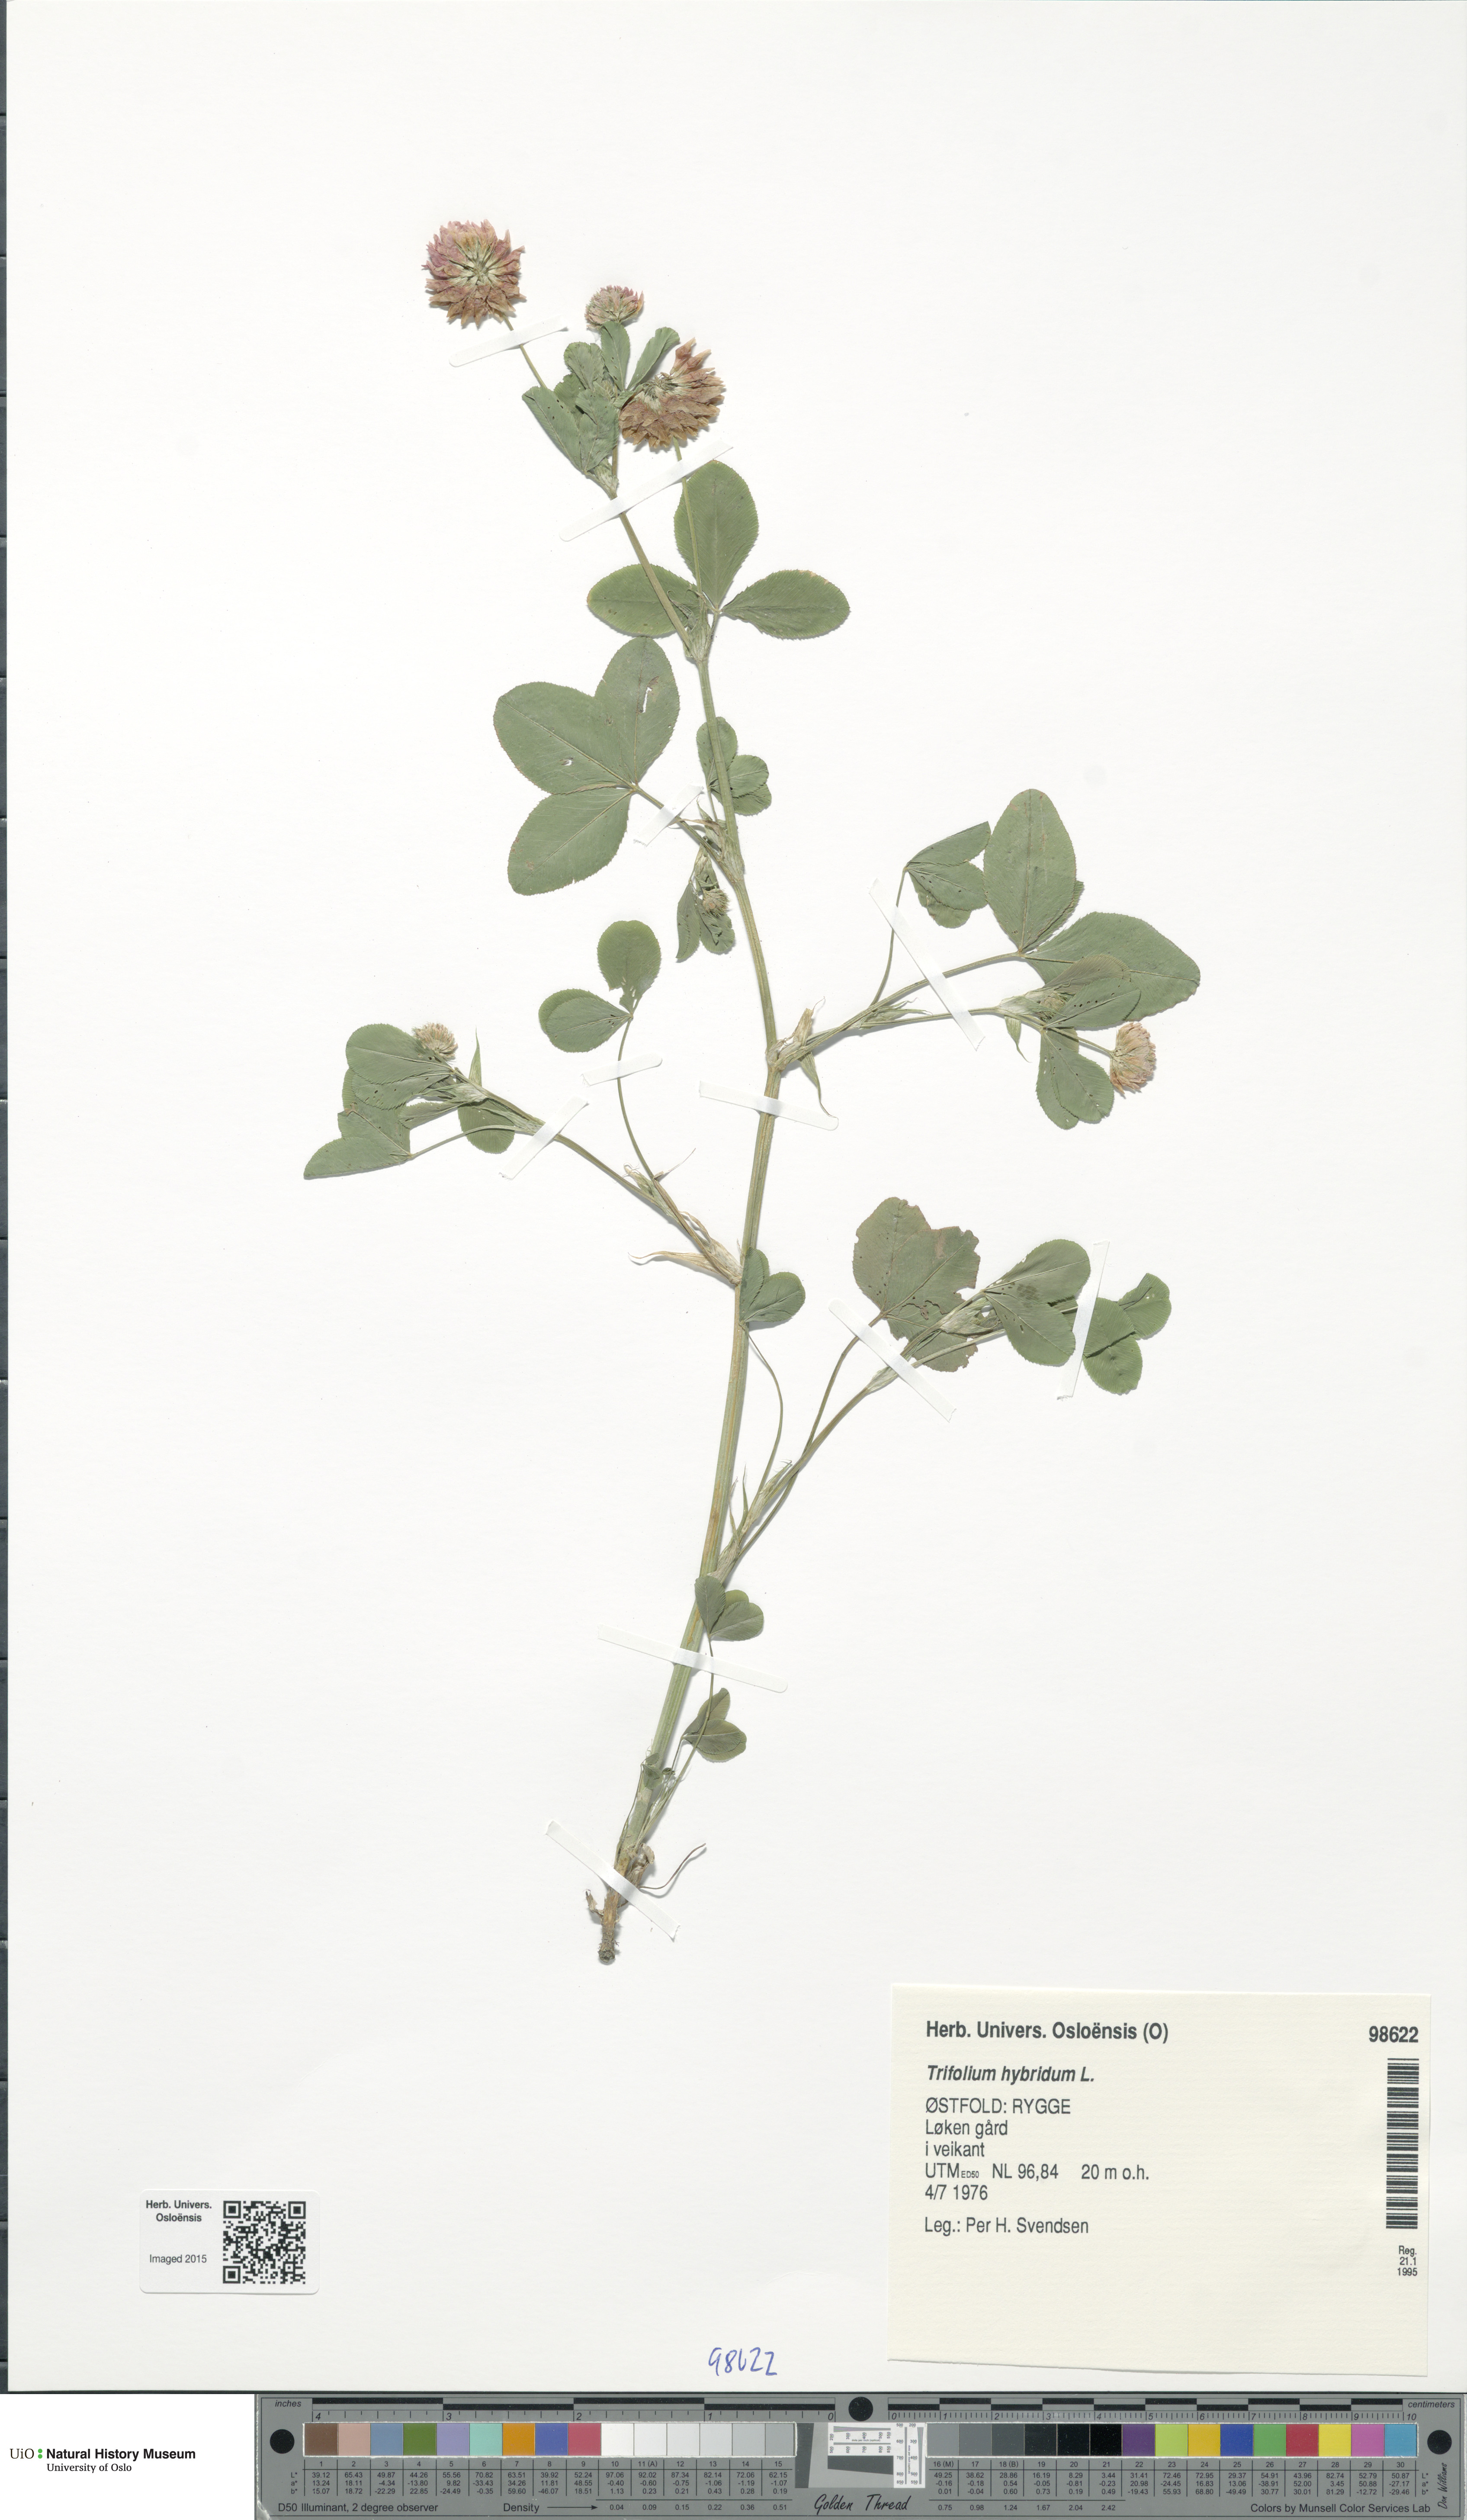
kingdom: Plantae
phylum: Tracheophyta
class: Magnoliopsida
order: Fabales
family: Fabaceae
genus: Trifolium
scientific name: Trifolium hybridum
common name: Alsike clover
